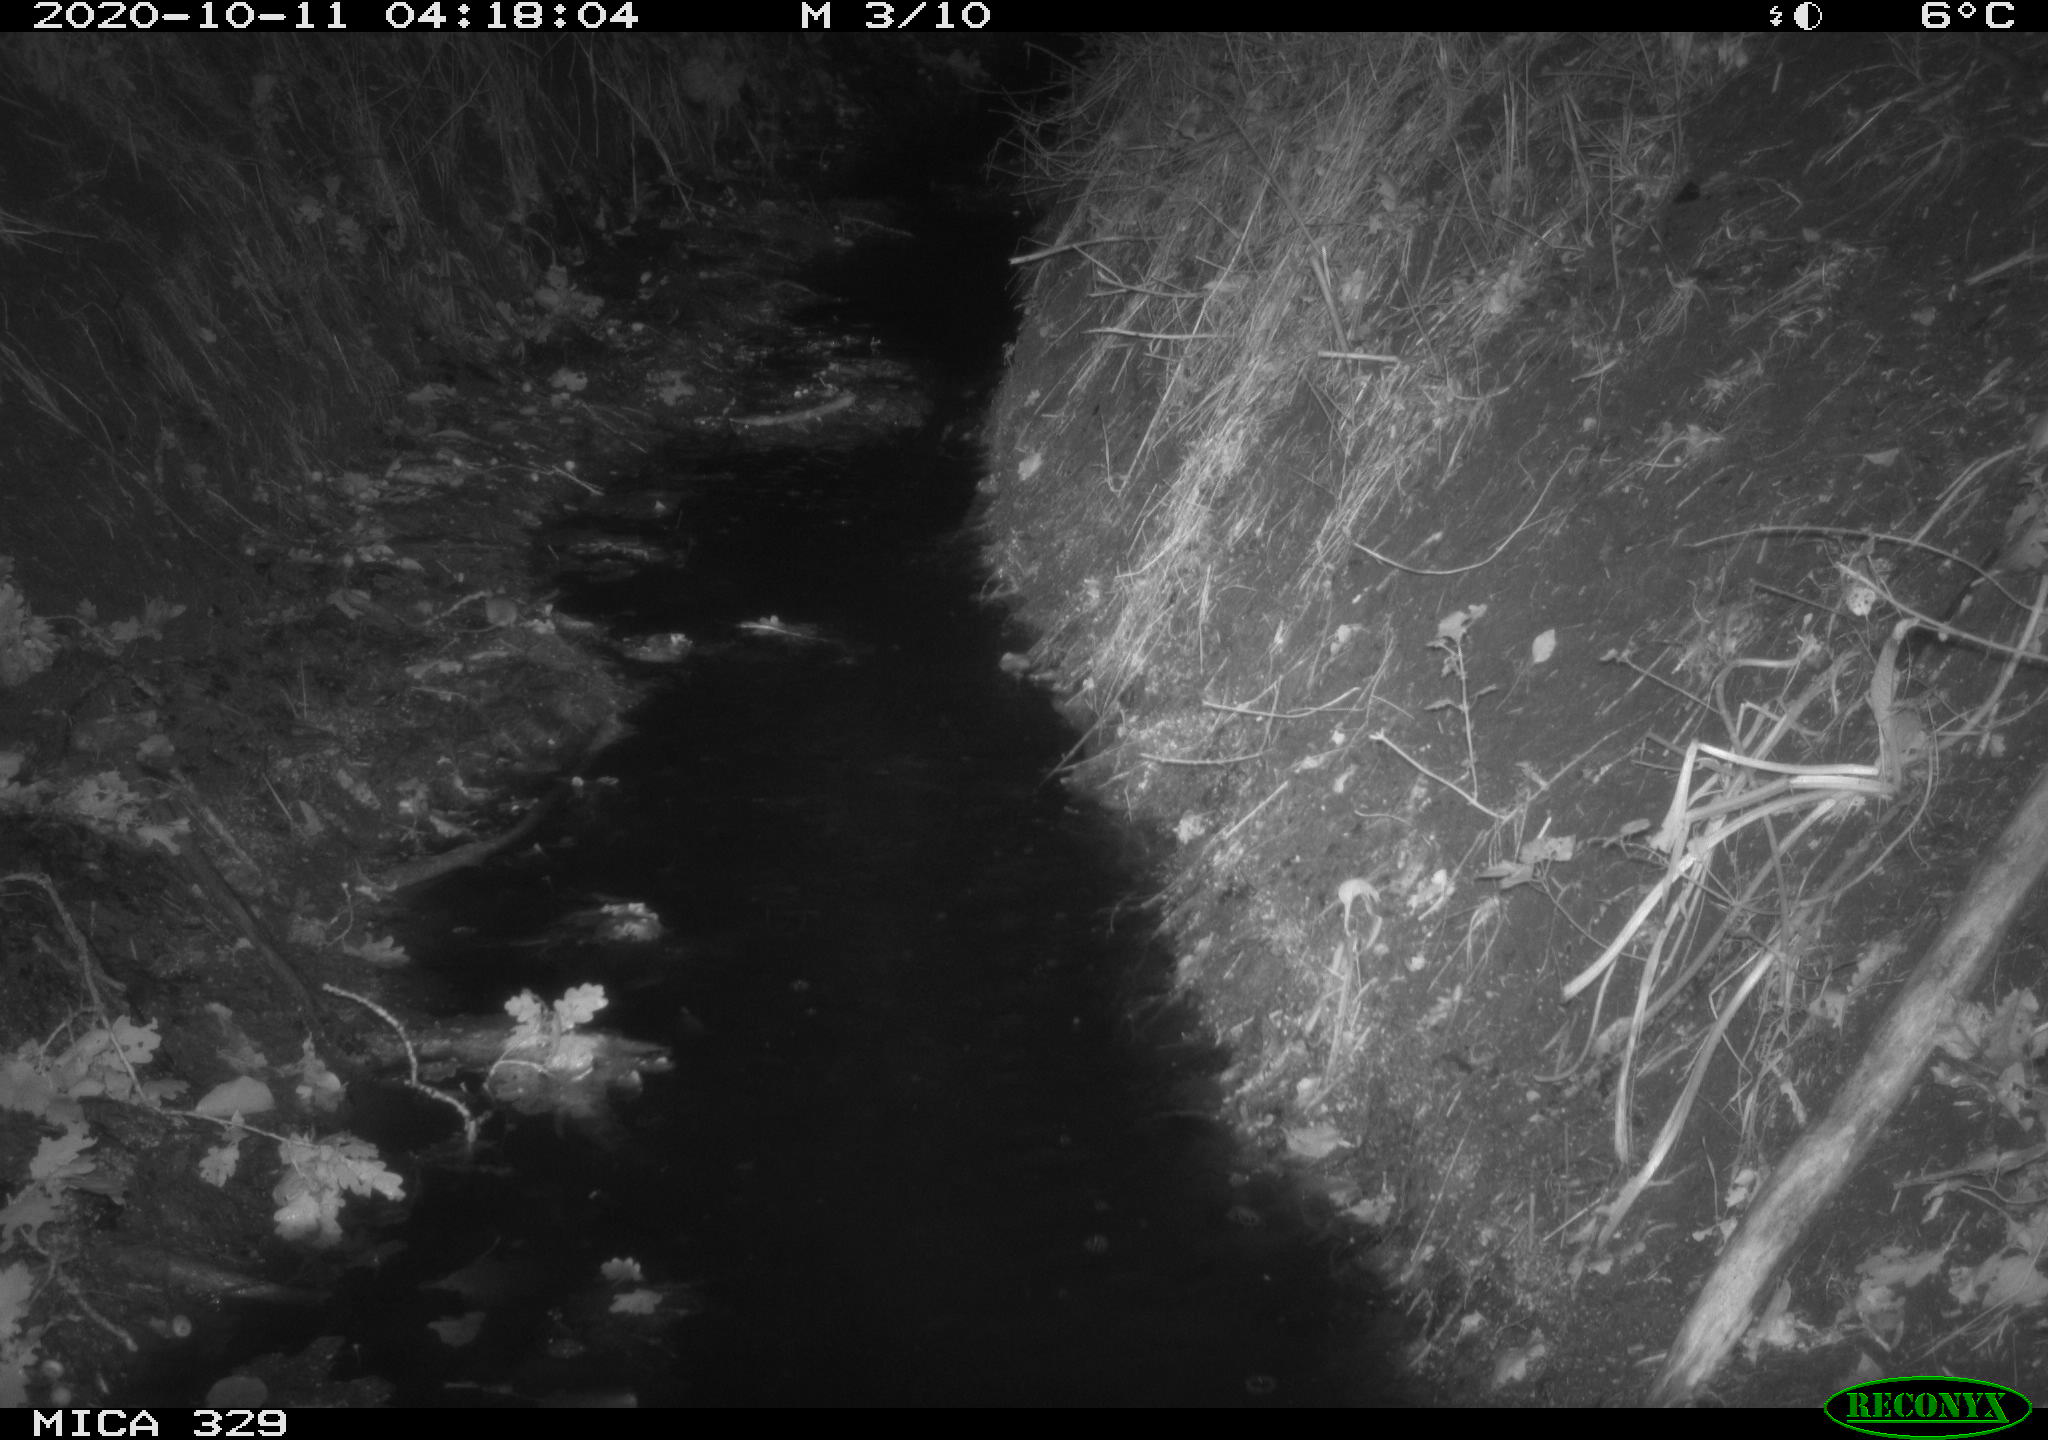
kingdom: Animalia
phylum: Chordata
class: Mammalia
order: Rodentia
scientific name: Rodentia
